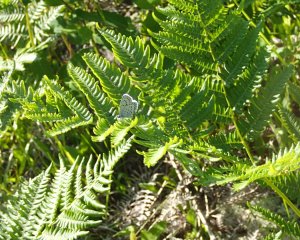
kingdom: Animalia
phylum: Arthropoda
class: Insecta
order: Lepidoptera
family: Lycaenidae
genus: Lycaeides
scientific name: Lycaeides idas
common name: Northern Blue
